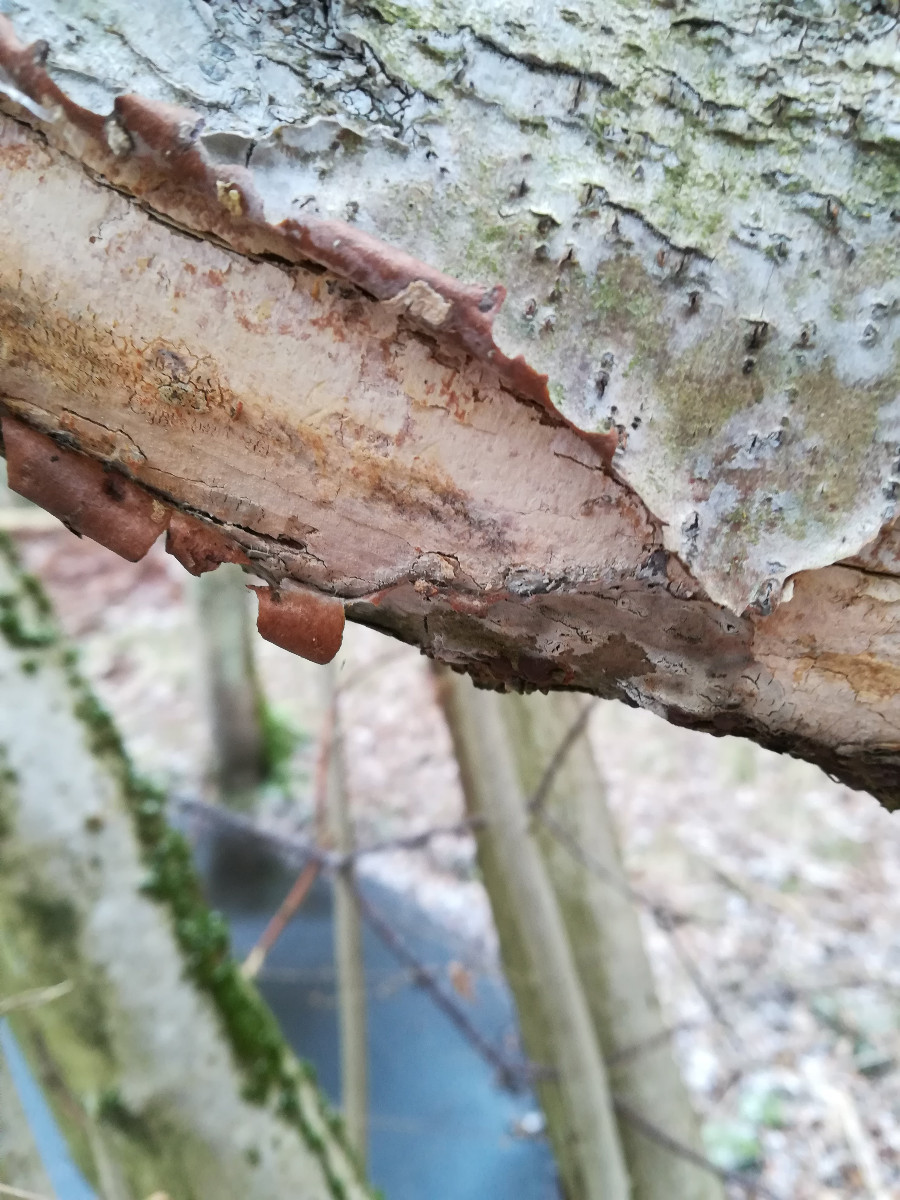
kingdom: Fungi
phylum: Basidiomycota
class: Agaricomycetes
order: Corticiales
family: Corticiaceae
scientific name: Corticiaceae
